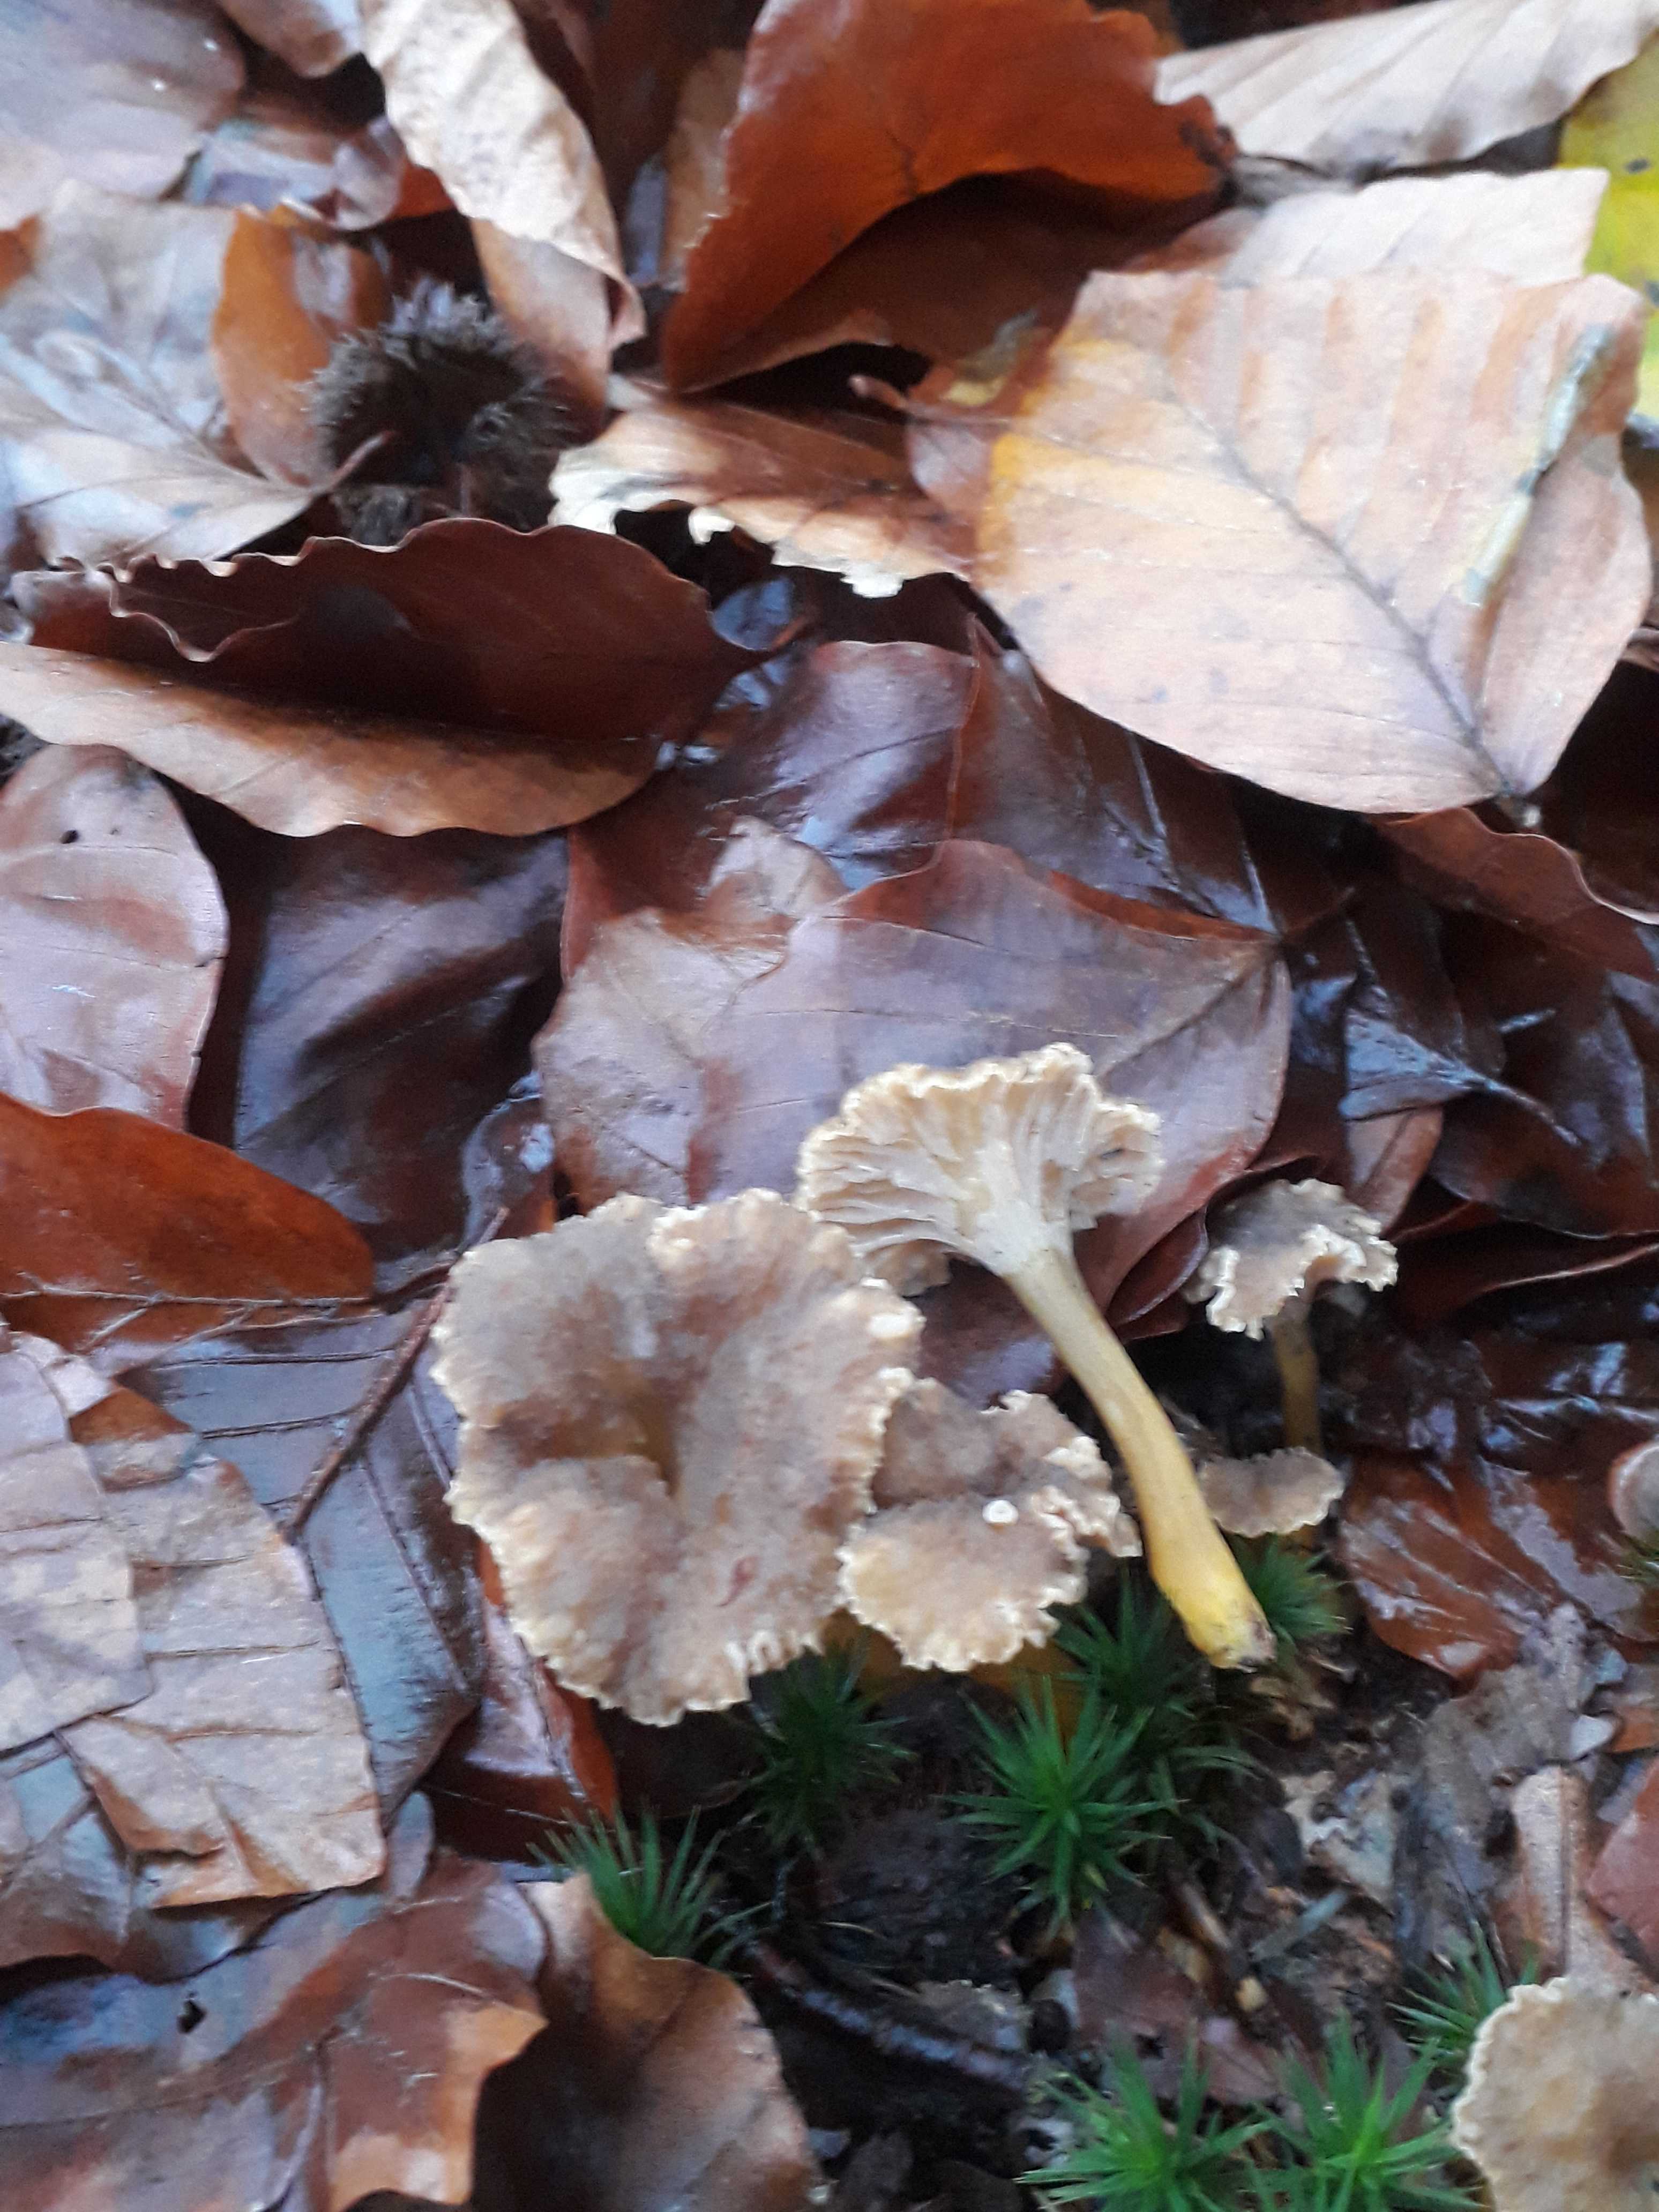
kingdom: Fungi
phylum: Basidiomycota
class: Agaricomycetes
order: Cantharellales
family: Hydnaceae
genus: Craterellus
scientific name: Craterellus tubaeformis
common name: tragt-kantarel
